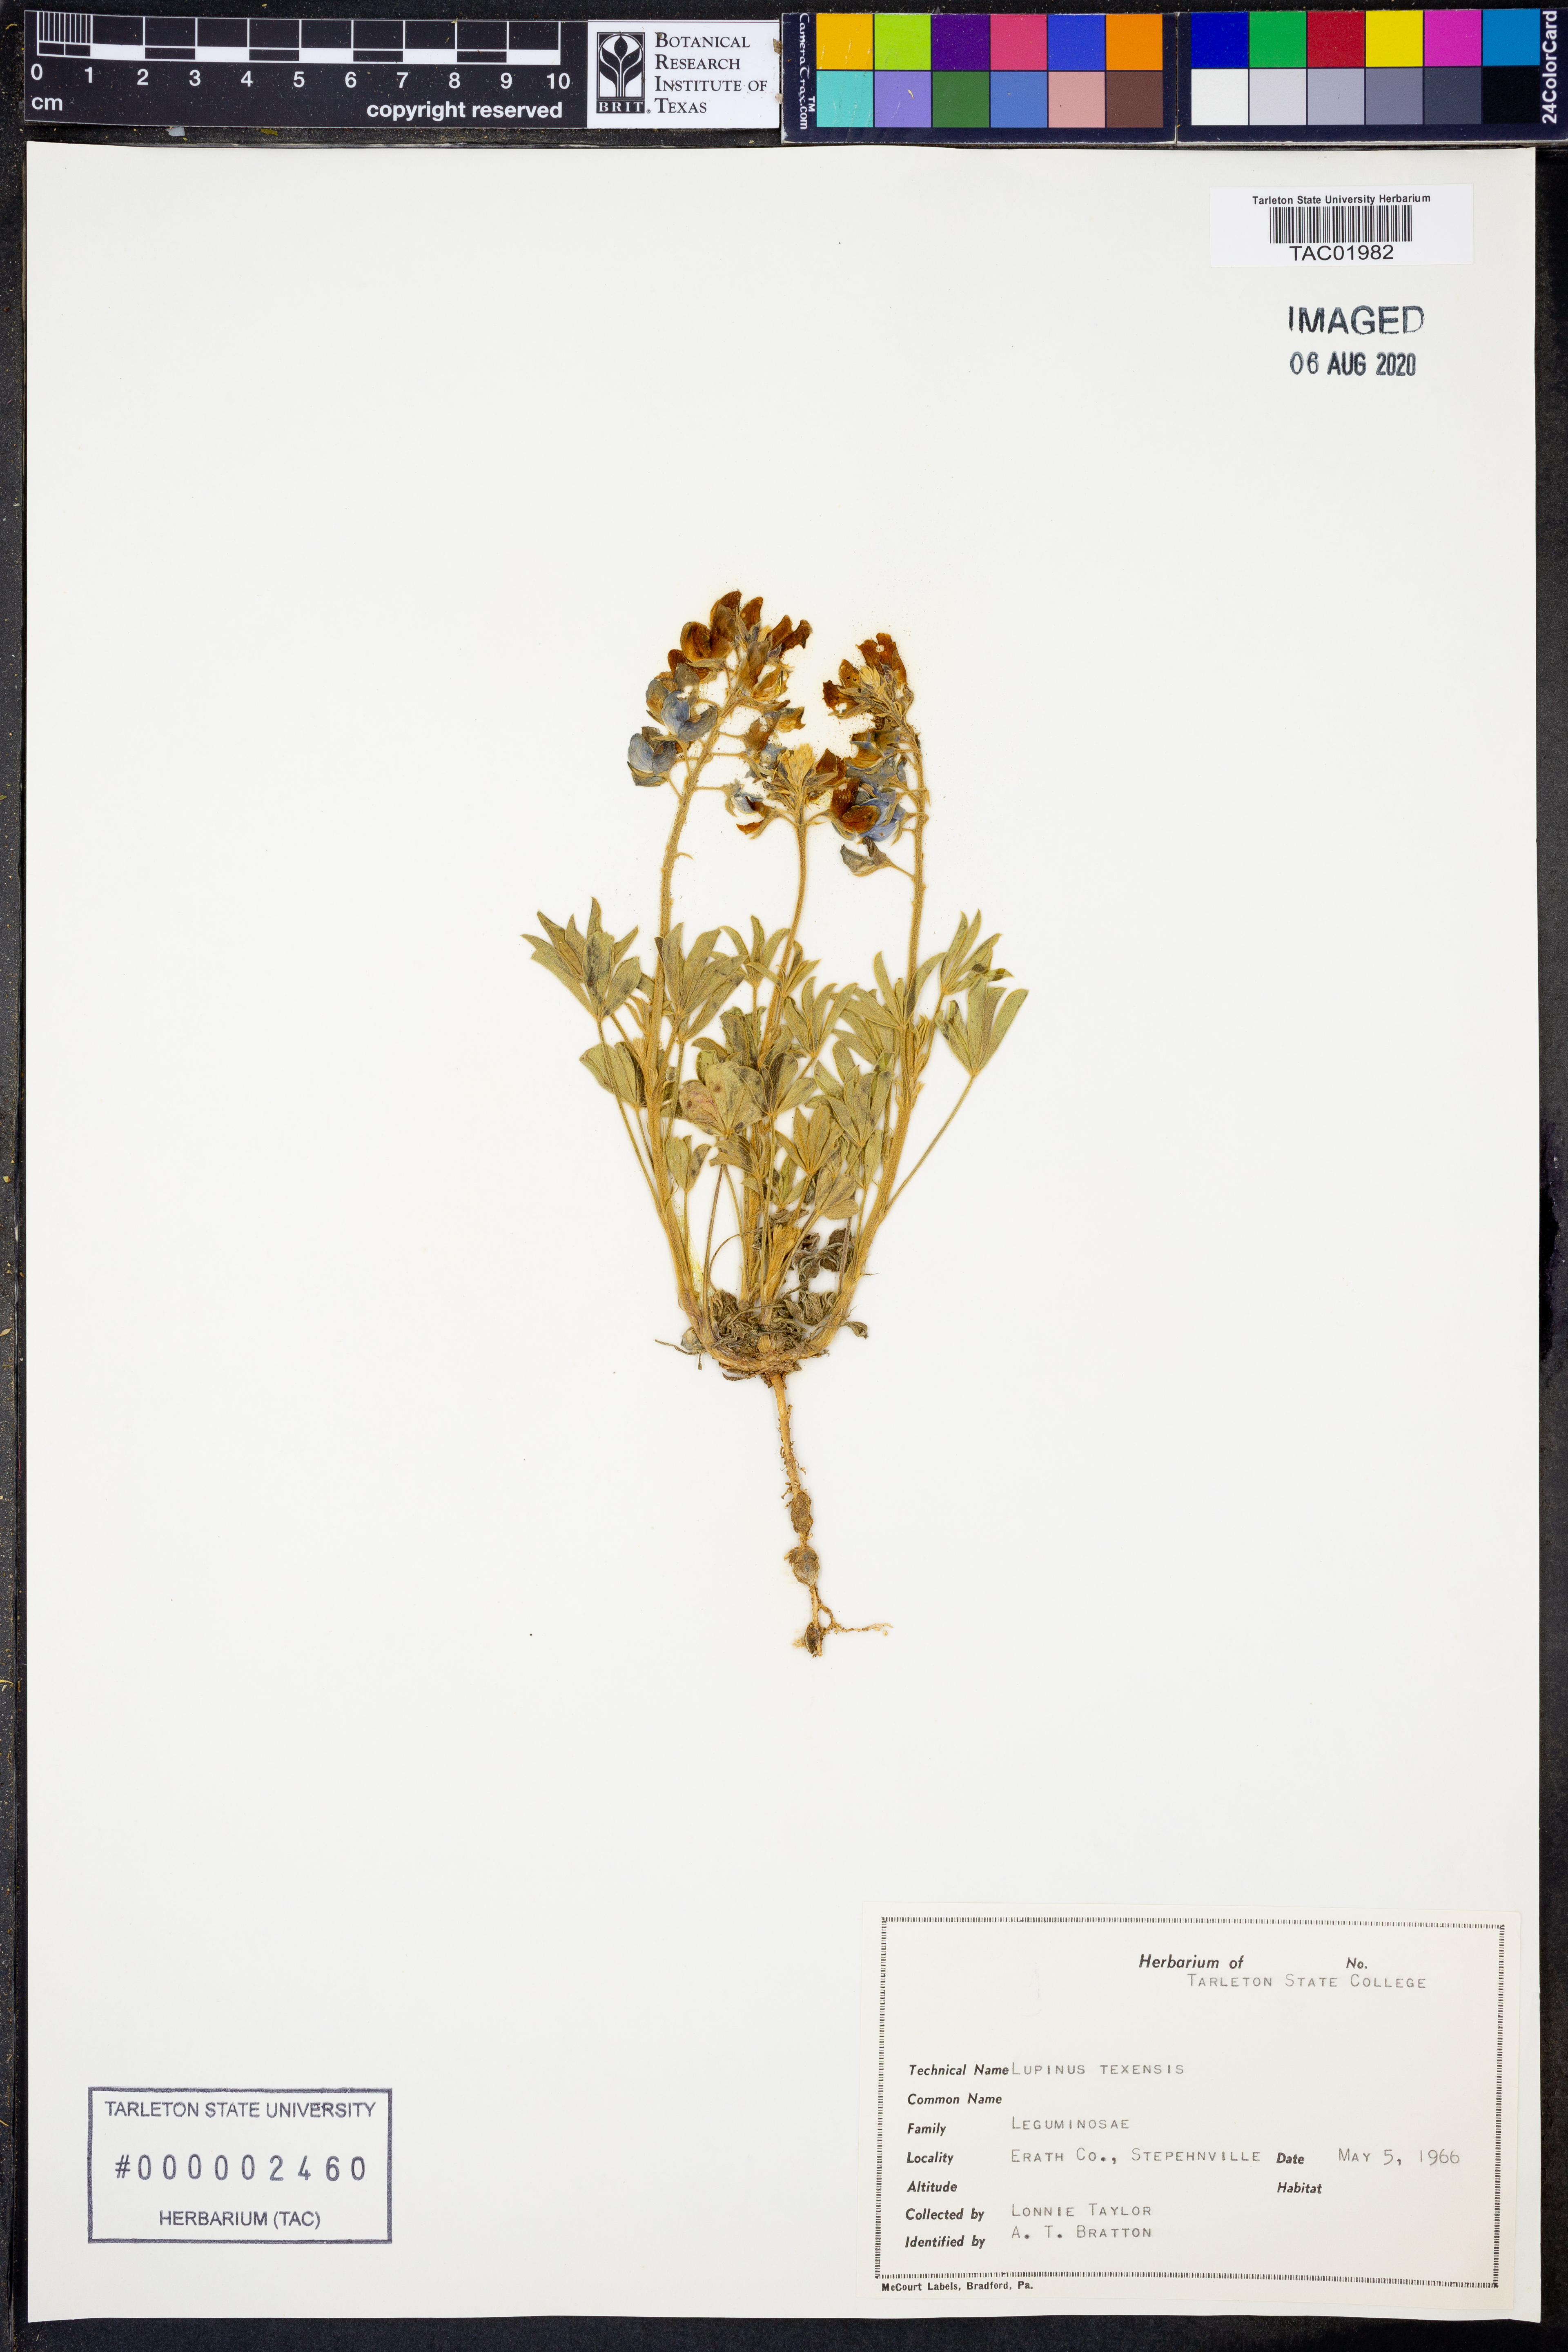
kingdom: Plantae
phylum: Tracheophyta
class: Magnoliopsida
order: Fabales
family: Fabaceae
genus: Lupinus
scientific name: Lupinus texensis
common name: Texas bluebonnet
